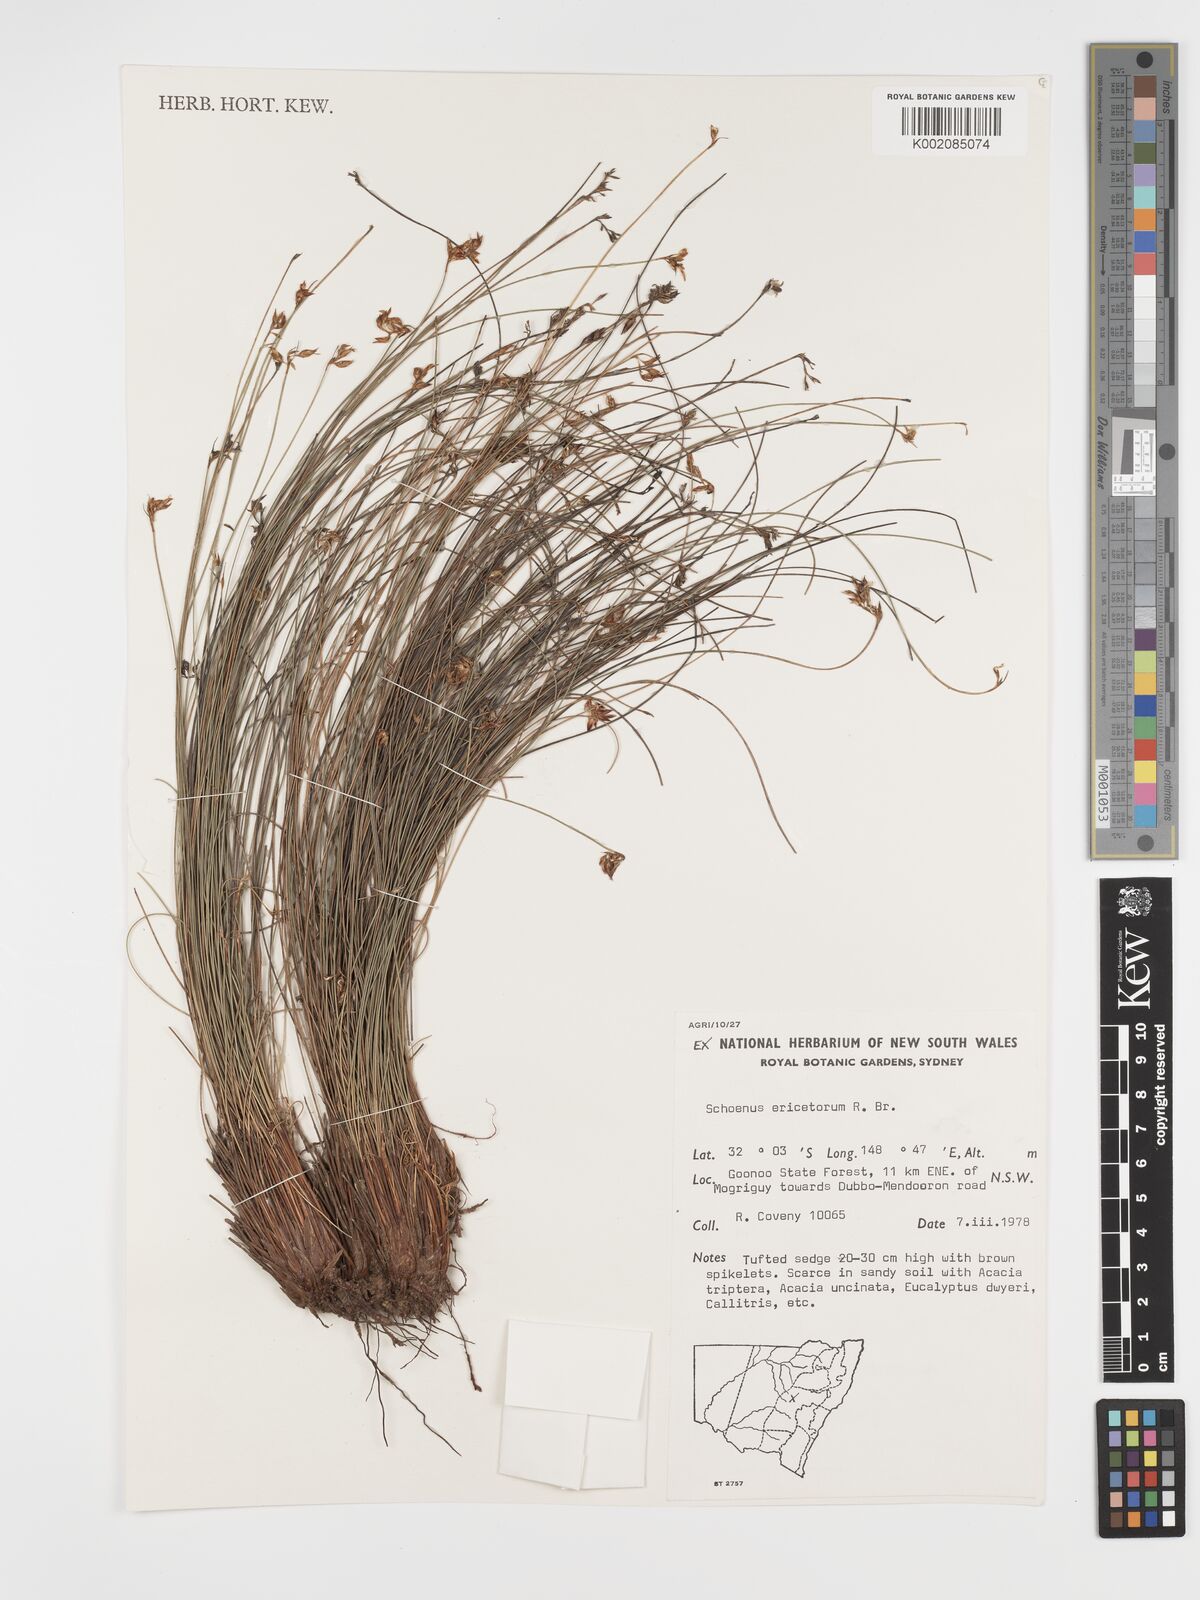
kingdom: Plantae
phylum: Tracheophyta
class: Liliopsida
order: Poales
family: Cyperaceae
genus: Schoenus
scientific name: Schoenus ericetorum
